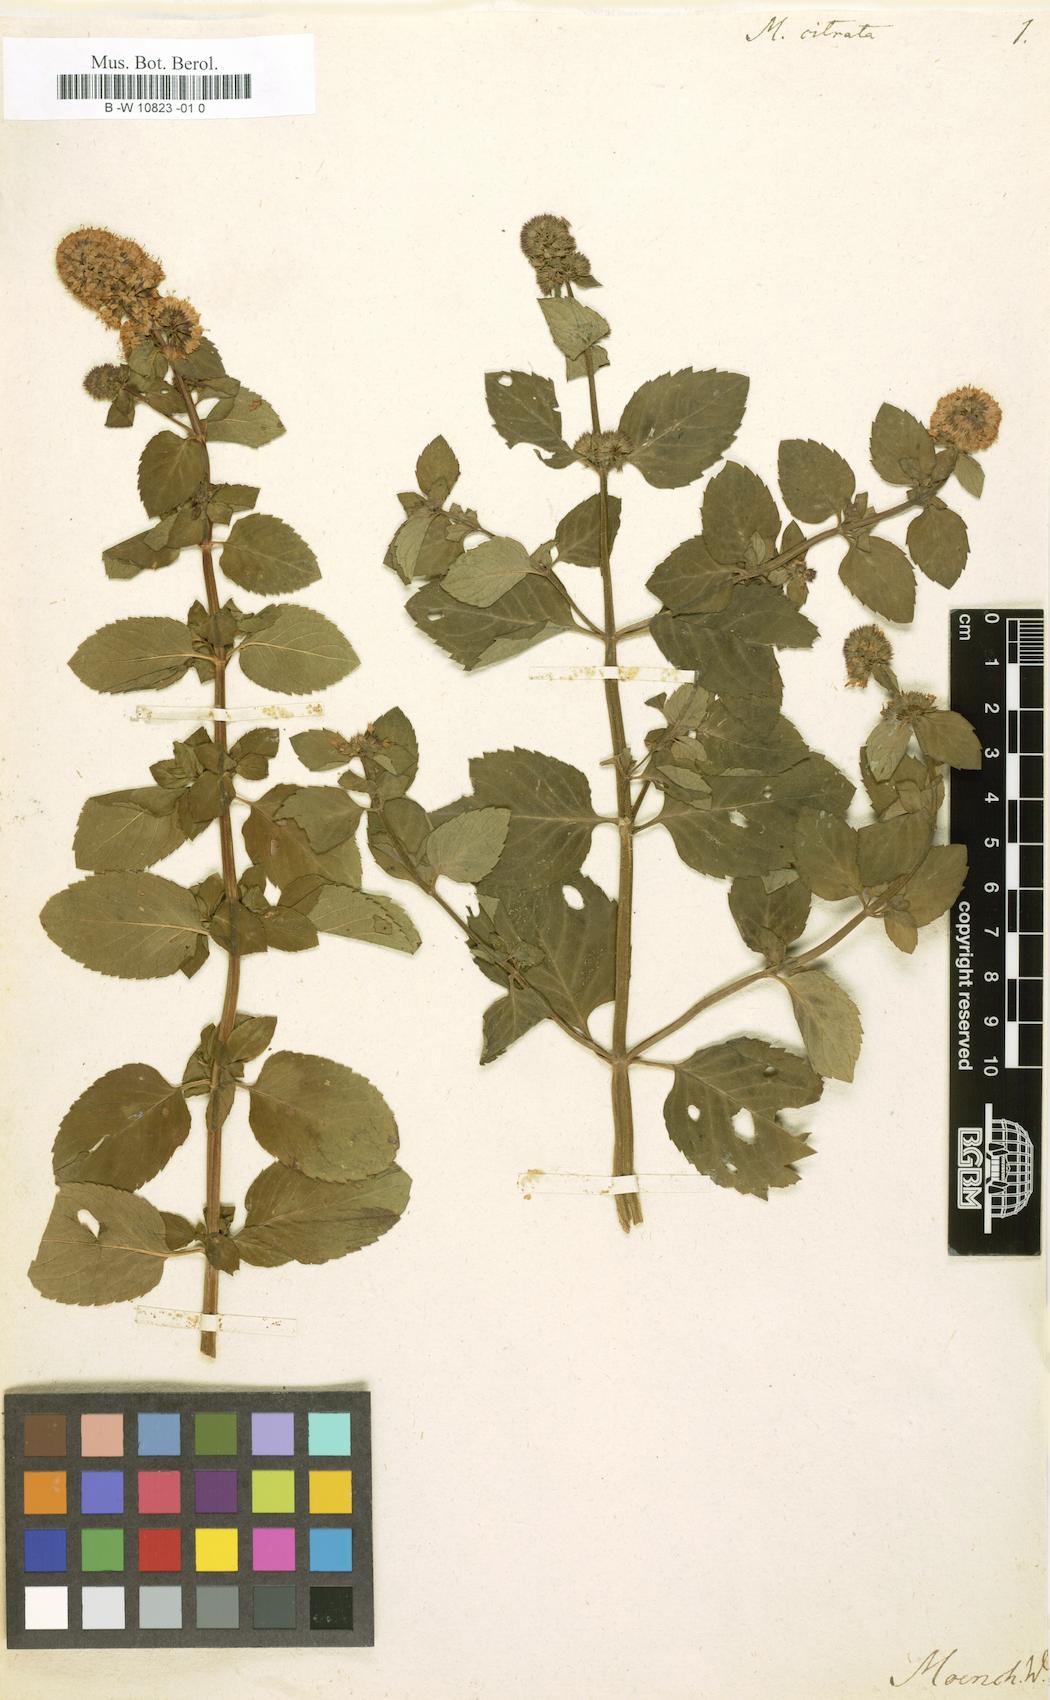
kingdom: Plantae
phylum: Tracheophyta
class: Magnoliopsida
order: Lamiales
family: Lamiaceae
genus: Mentha
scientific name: Mentha aquatica
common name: Water mint
